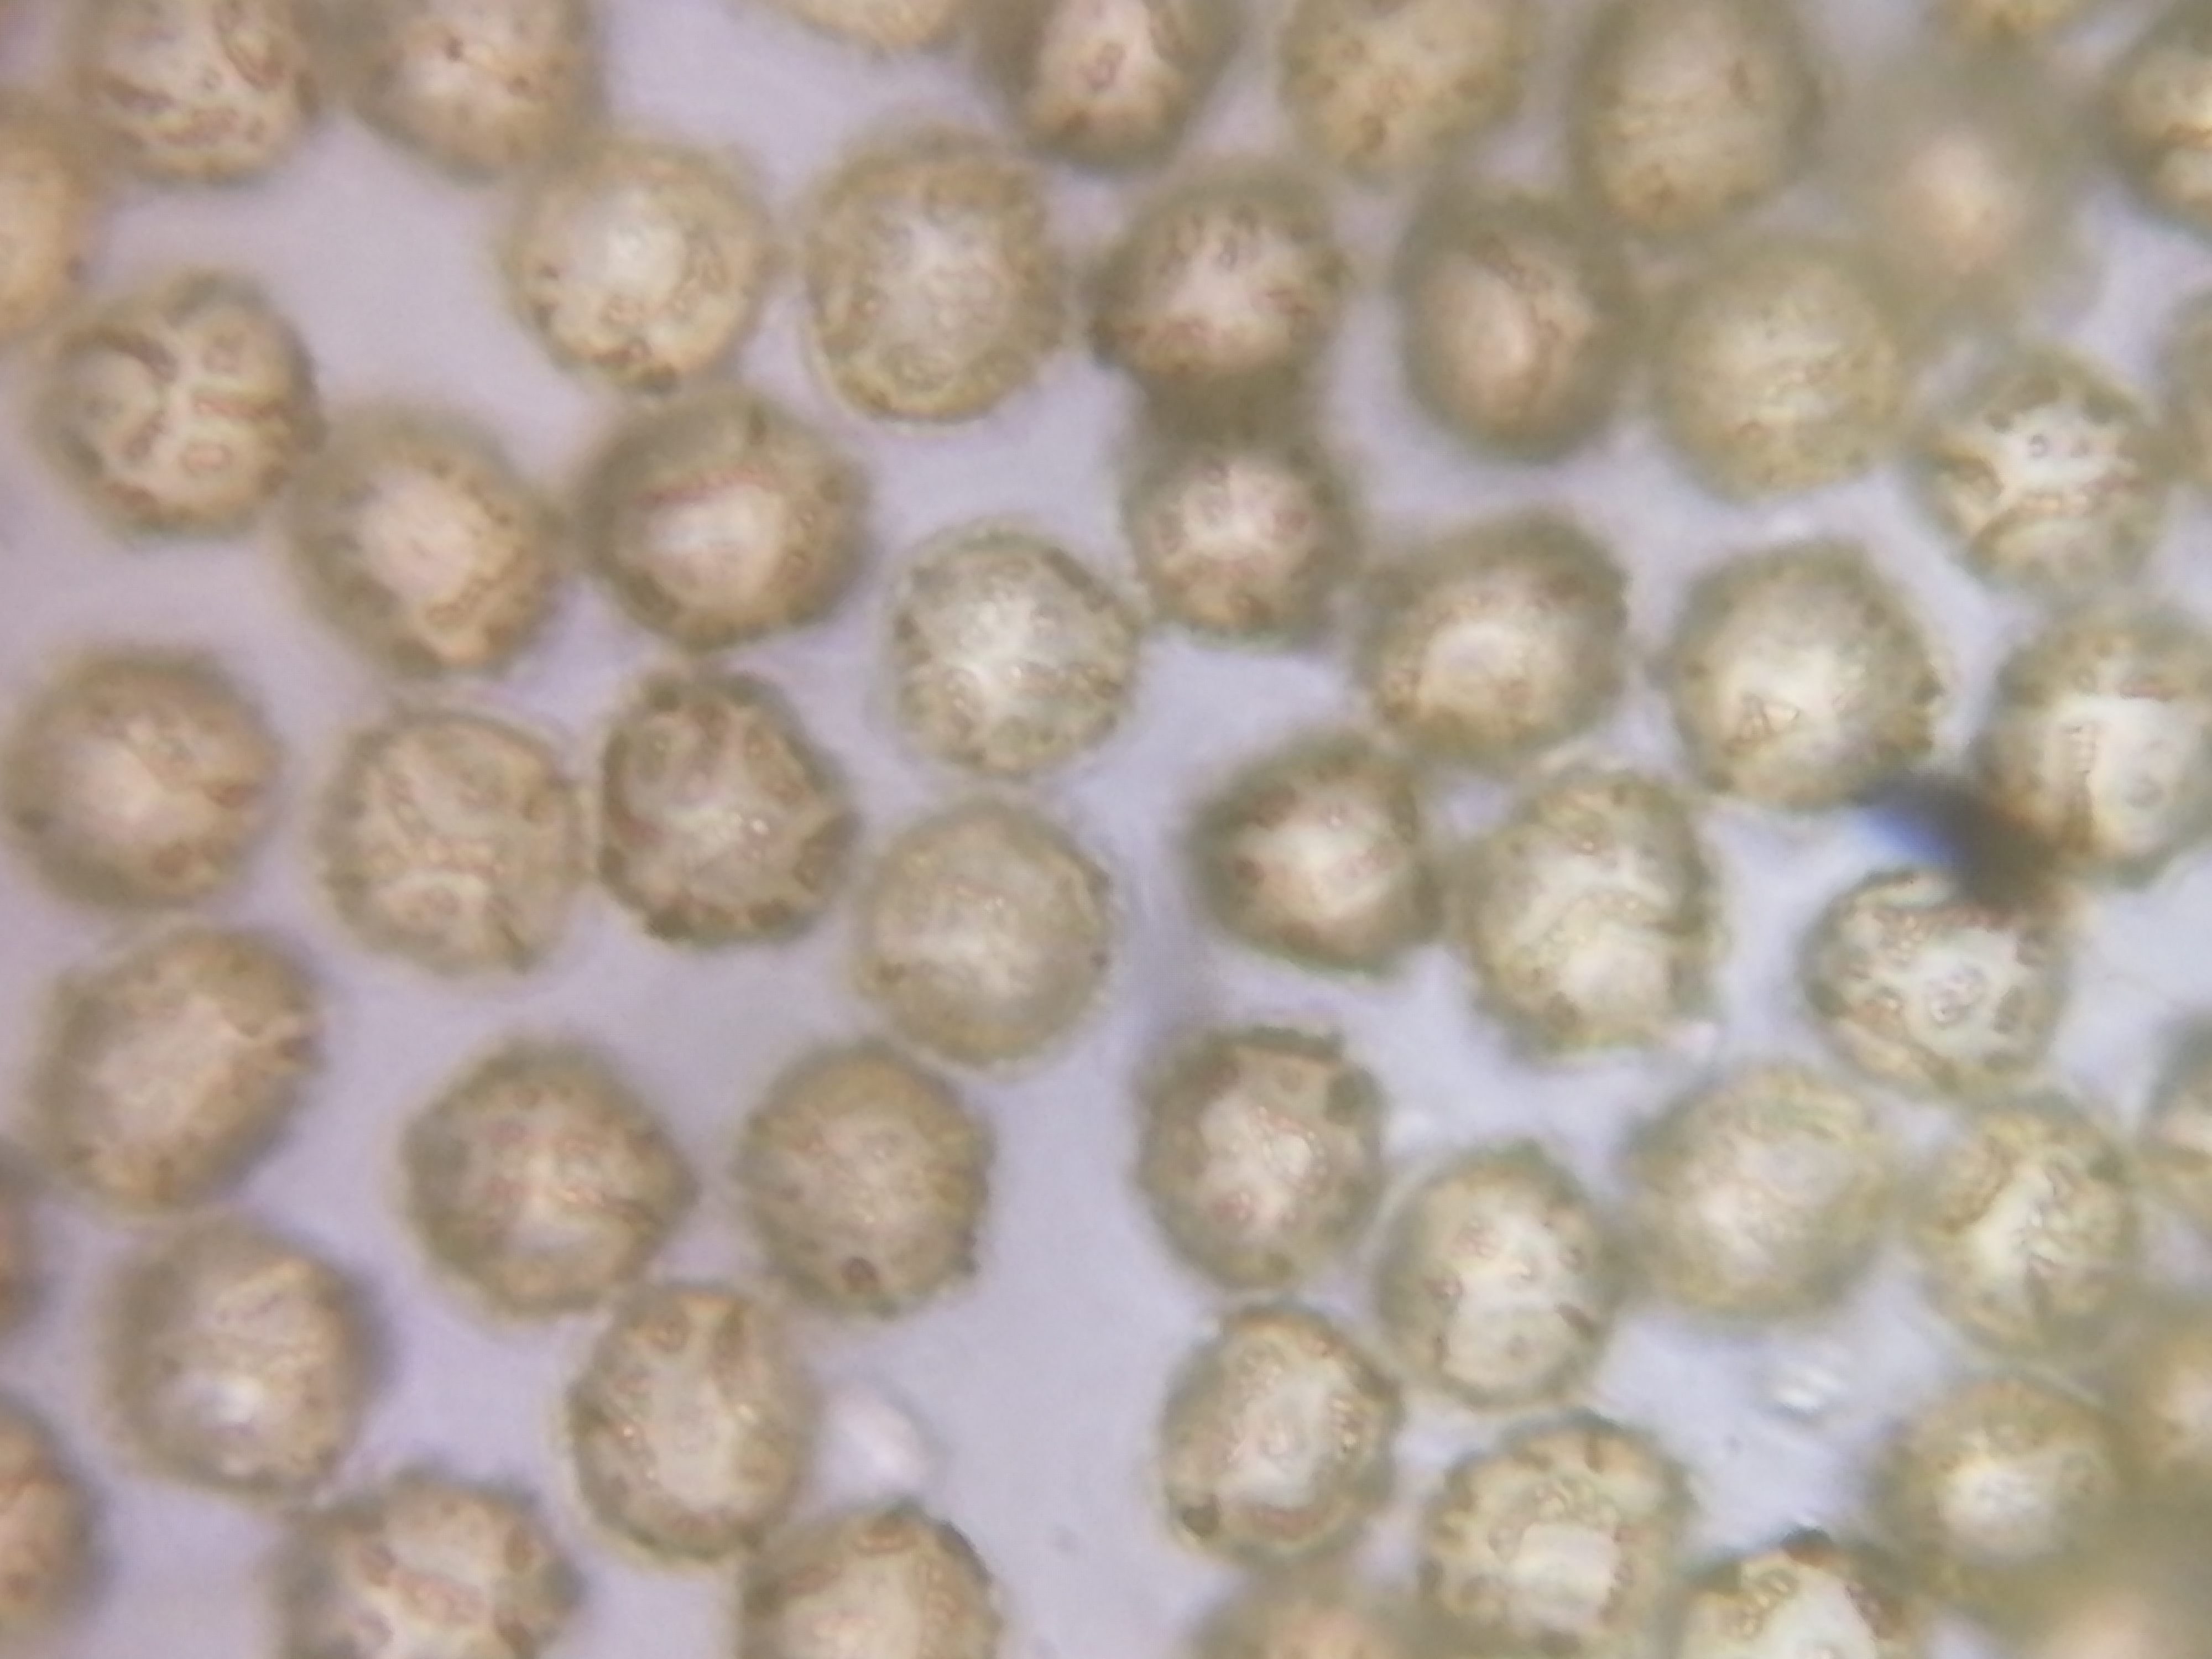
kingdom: Protozoa
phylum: Mycetozoa
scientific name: Mycetozoa
